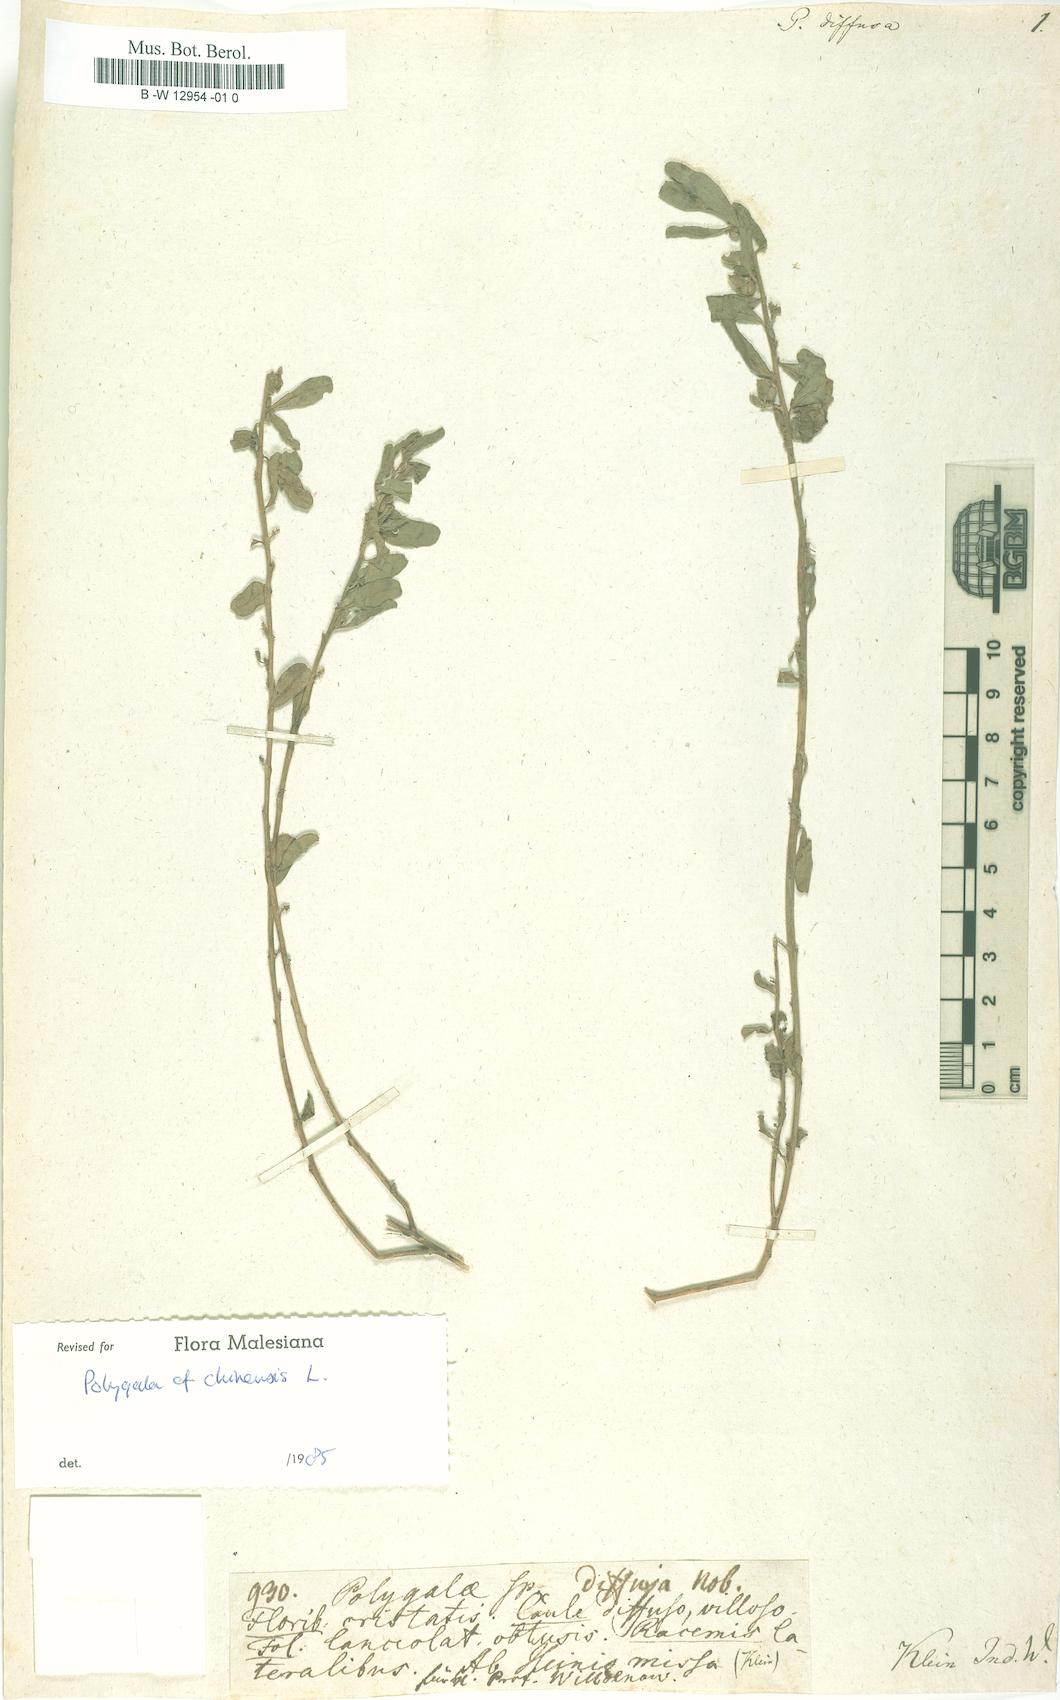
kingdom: Plantae
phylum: Tracheophyta
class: Magnoliopsida
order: Fabales
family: Polygalaceae
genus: Polygala
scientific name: Polygala
